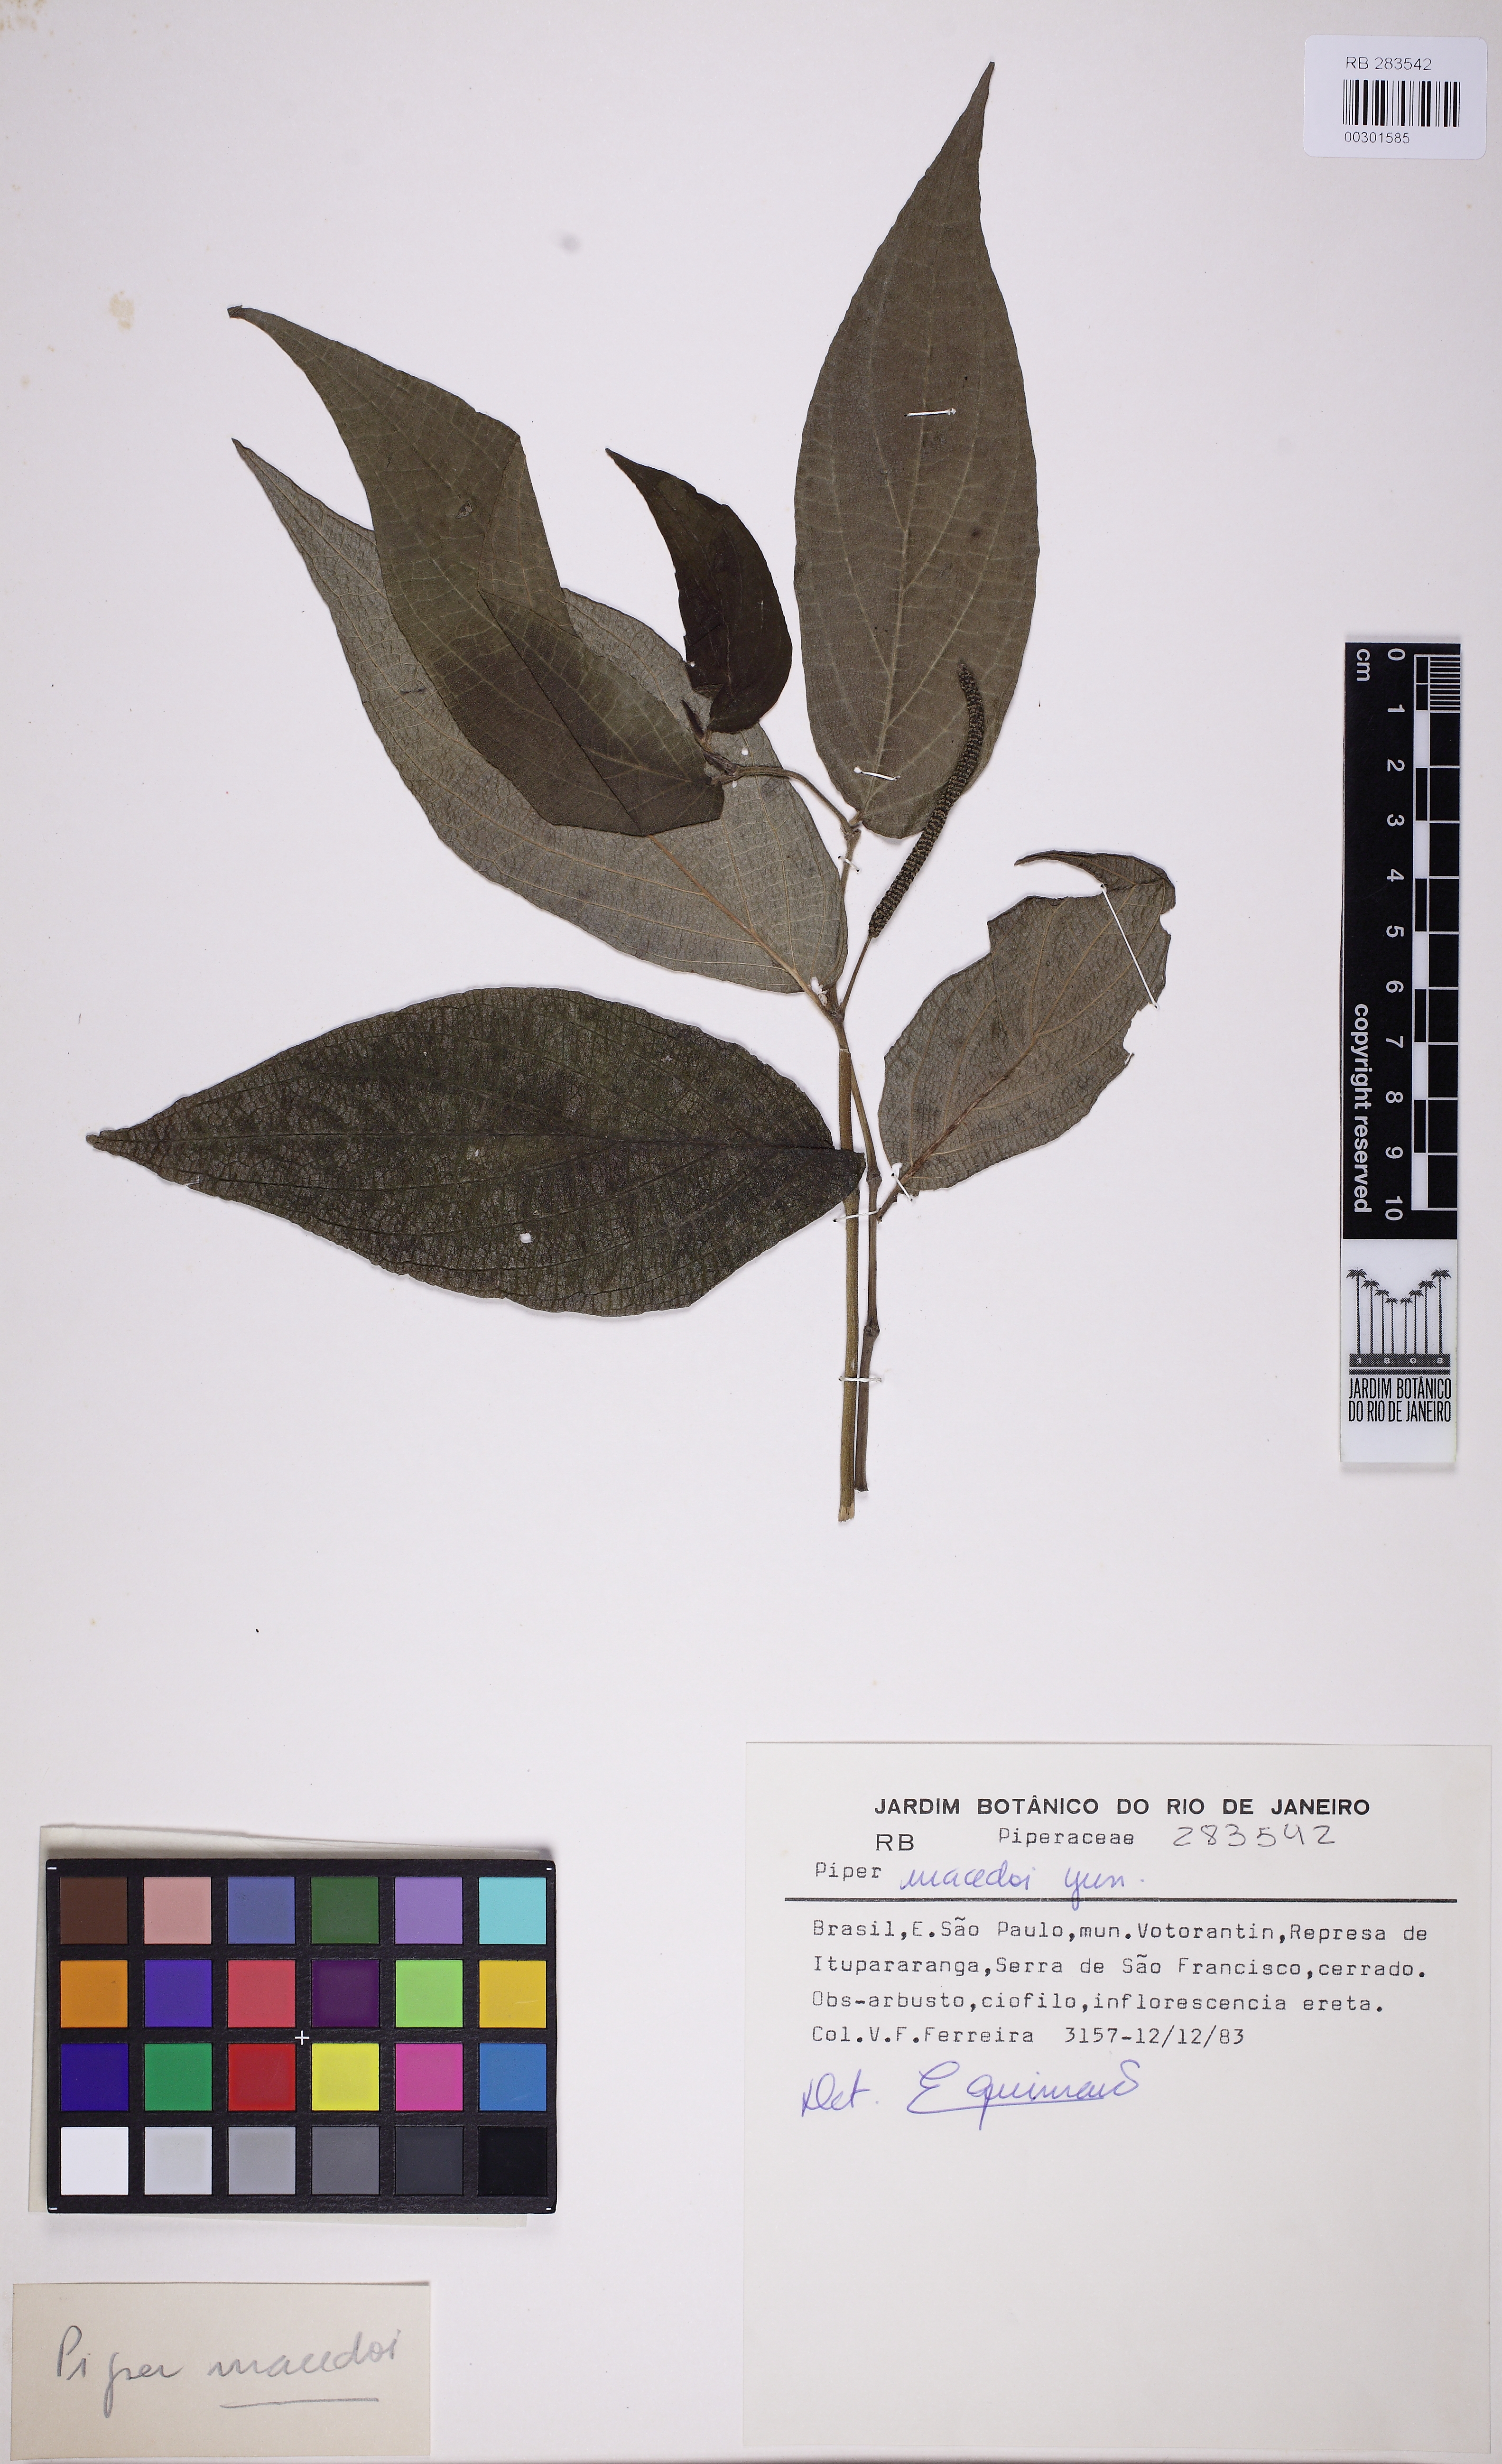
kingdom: Plantae
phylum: Tracheophyta
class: Magnoliopsida
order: Piperales
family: Piperaceae
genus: Piper
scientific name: Piper macedoi
